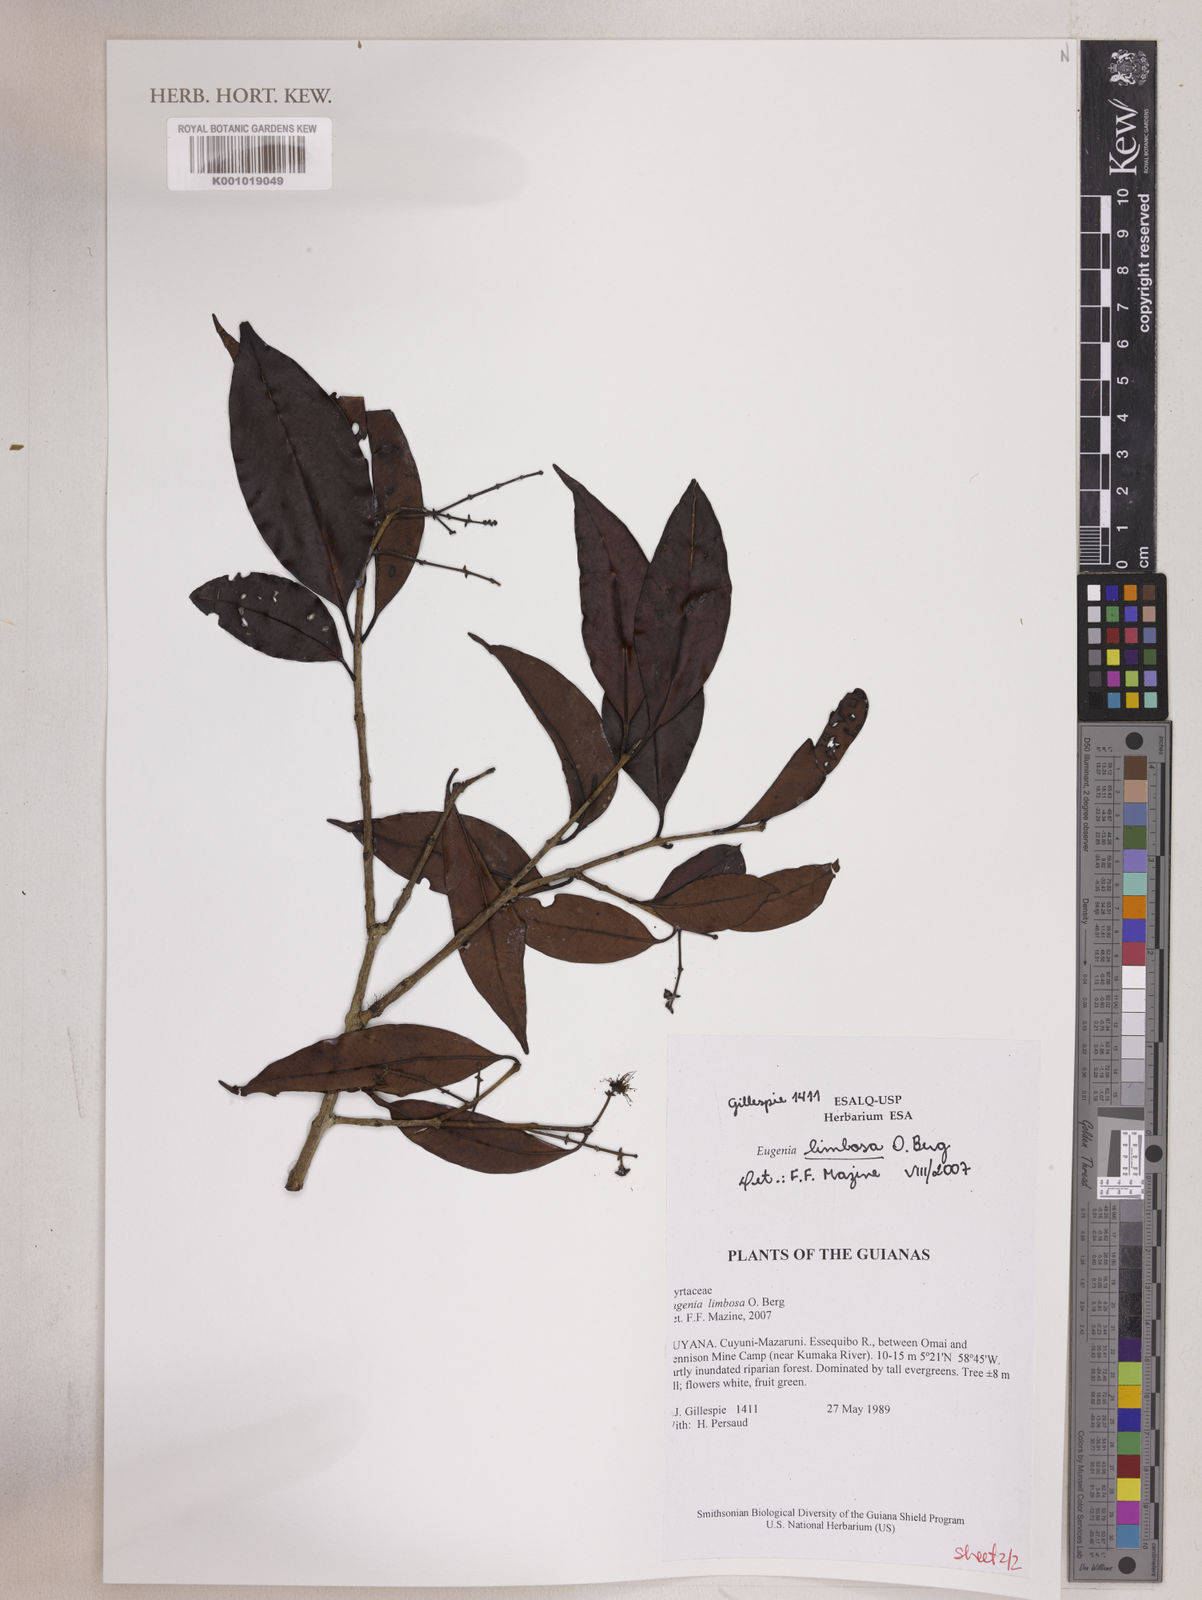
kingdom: Plantae
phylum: Tracheophyta
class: Magnoliopsida
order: Myrtales
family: Myrtaceae
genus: Eugenia
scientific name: Eugenia limbosa
